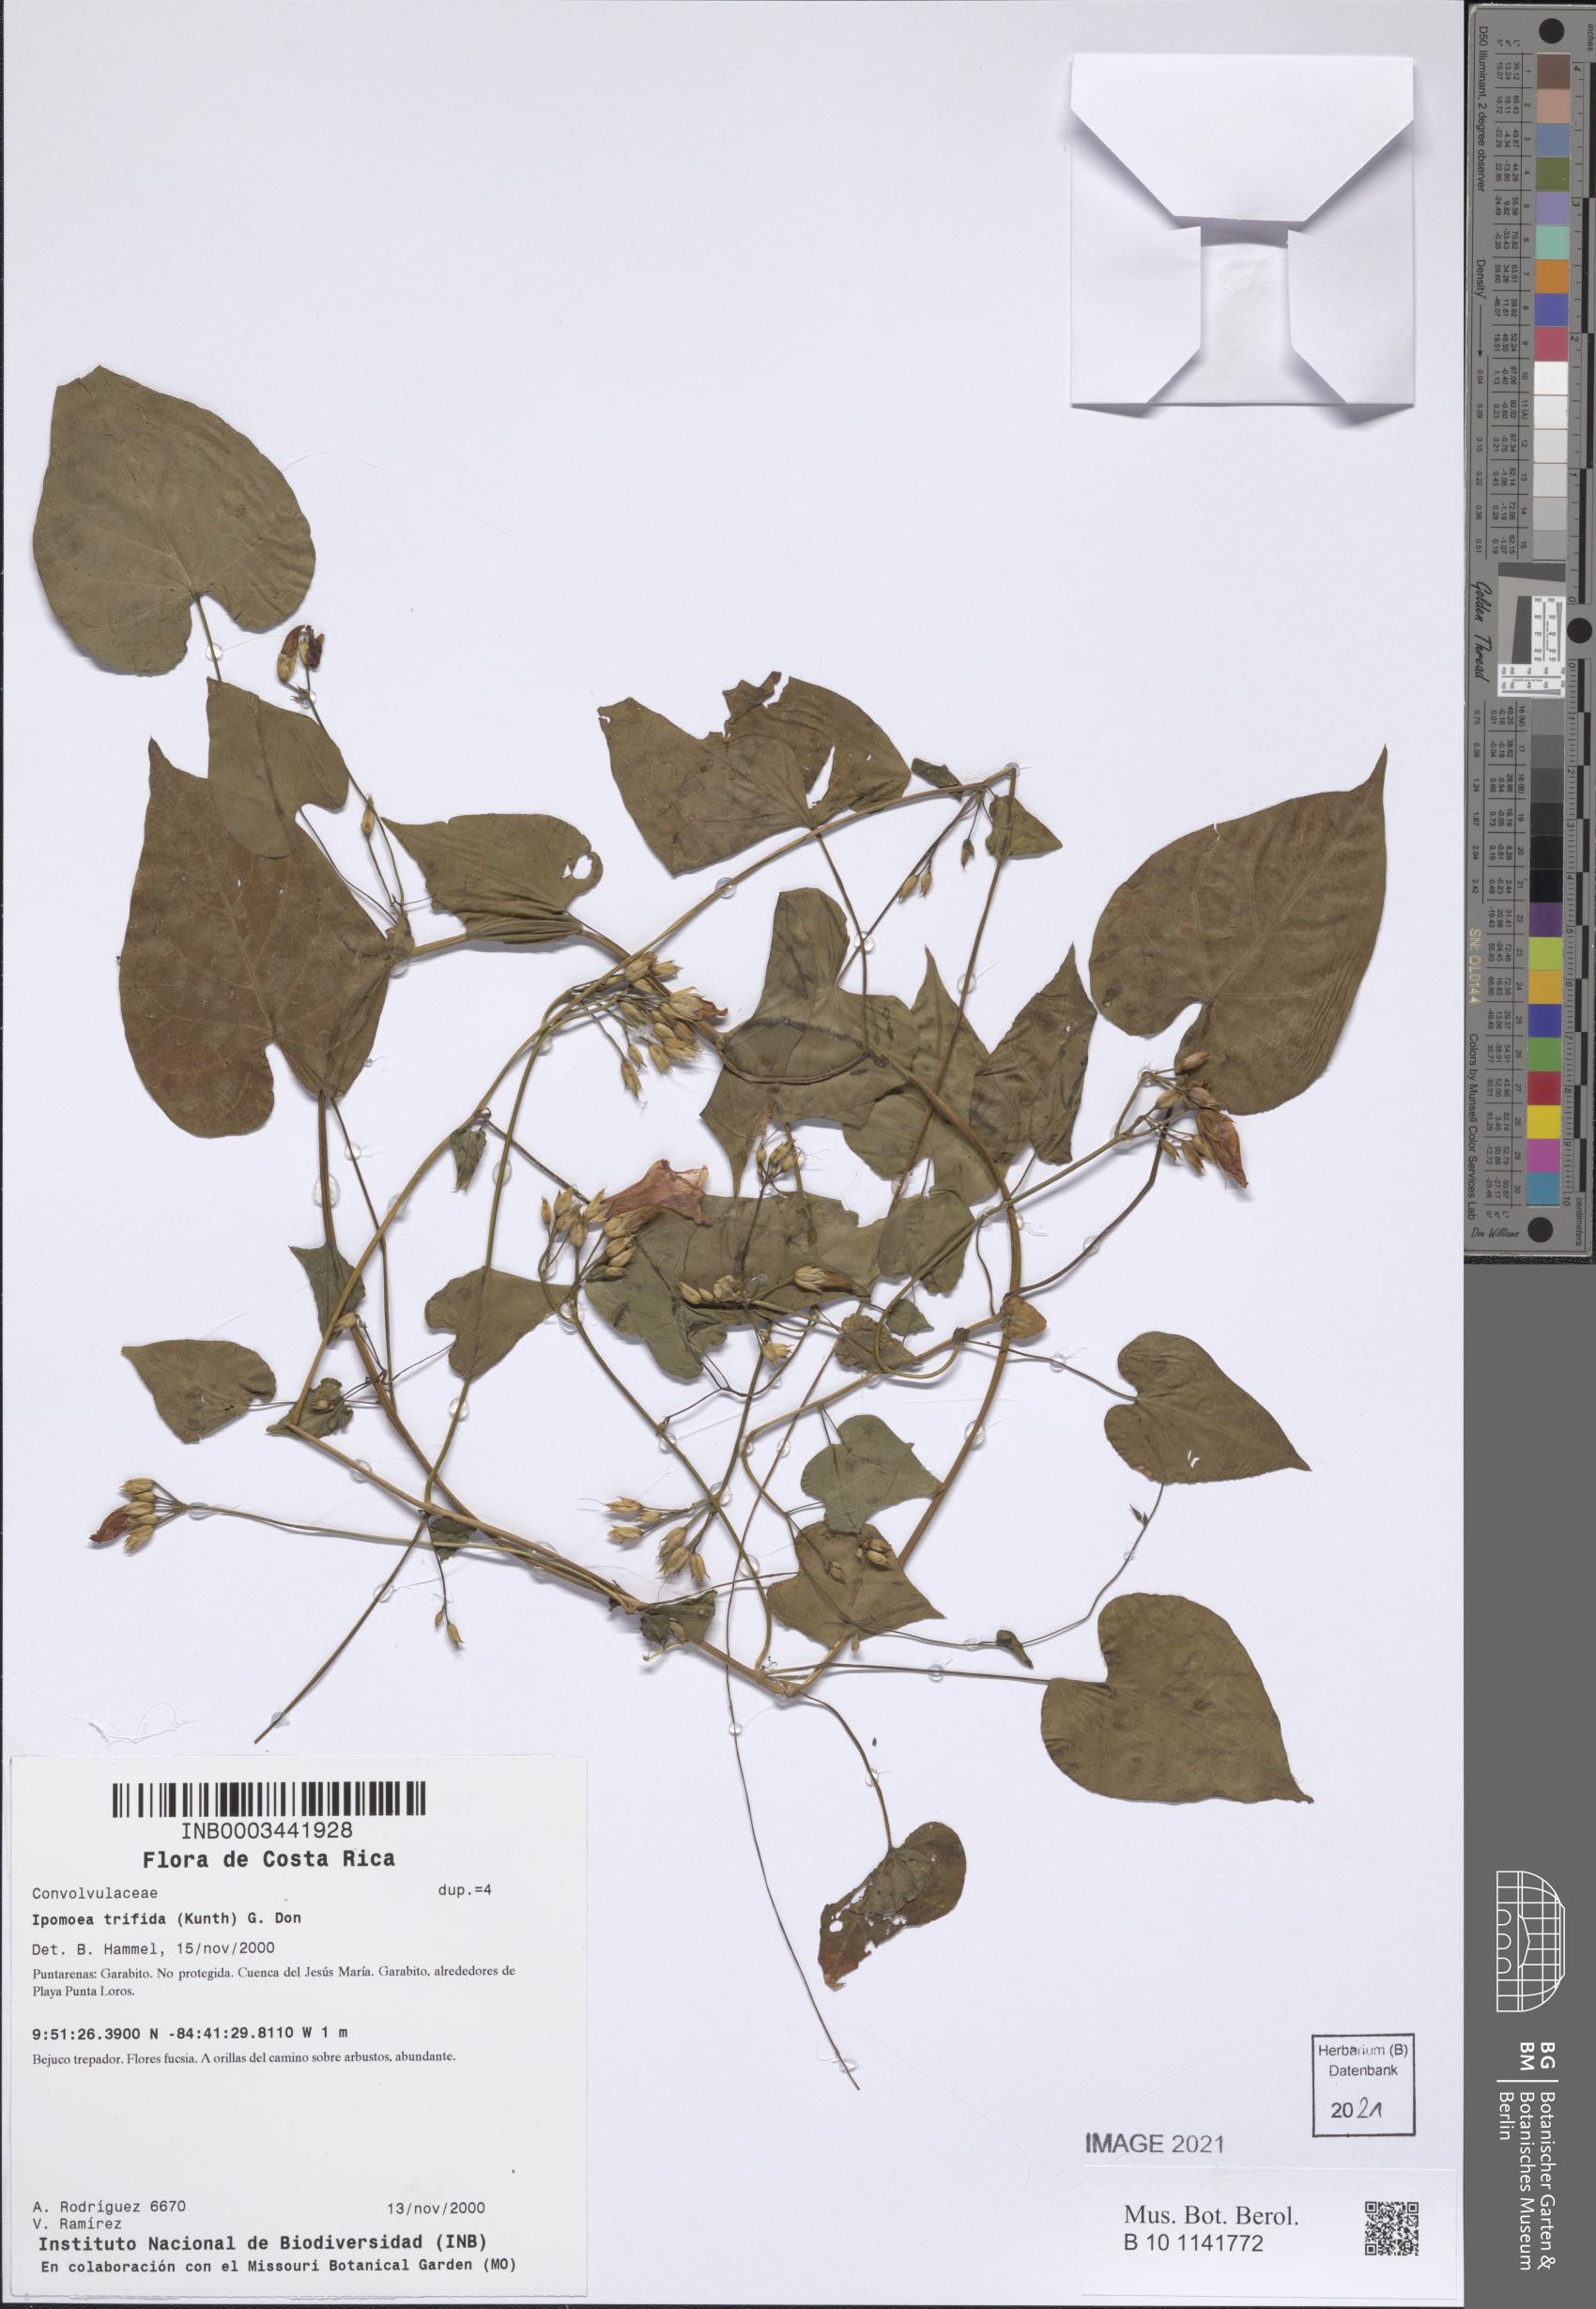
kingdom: Plantae
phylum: Tracheophyta
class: Magnoliopsida
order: Solanales
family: Convolvulaceae
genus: Ipomoea
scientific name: Ipomoea trifida
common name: Cotton morningglory
